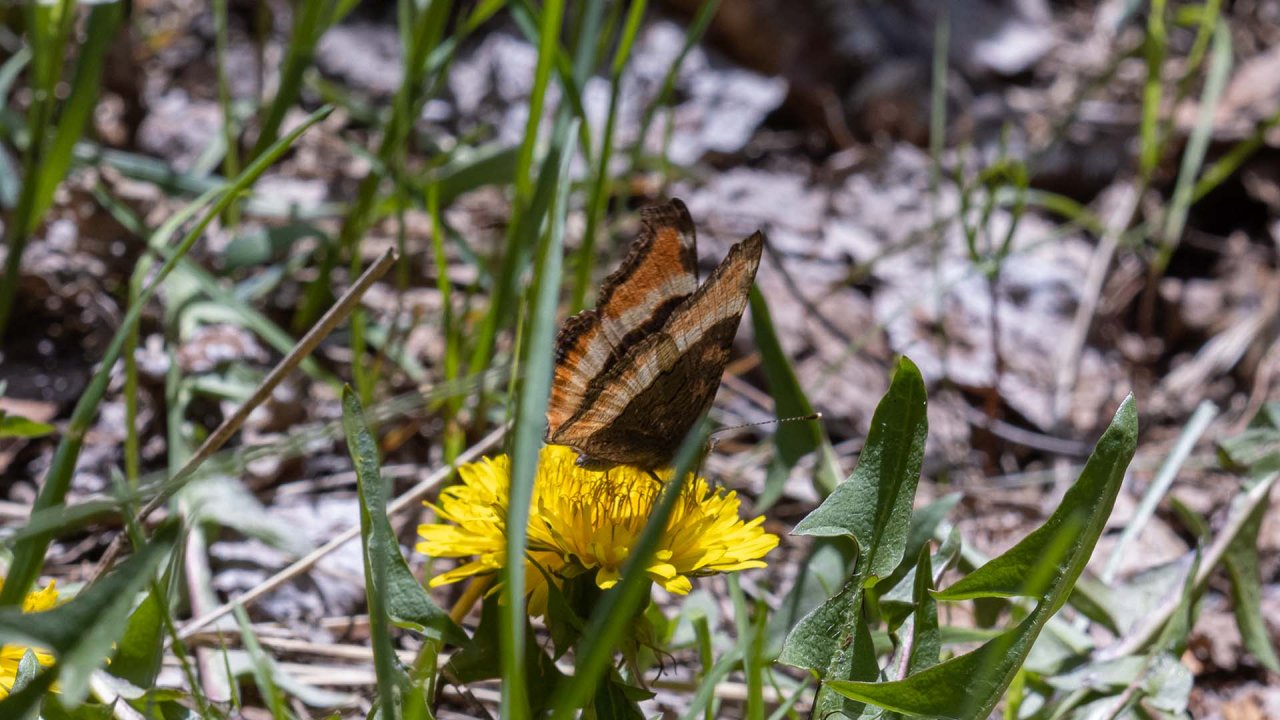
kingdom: Animalia
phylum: Arthropoda
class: Insecta
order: Lepidoptera
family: Nymphalidae
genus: Aglais
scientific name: Aglais milberti
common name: Milbert's Tortoiseshell
